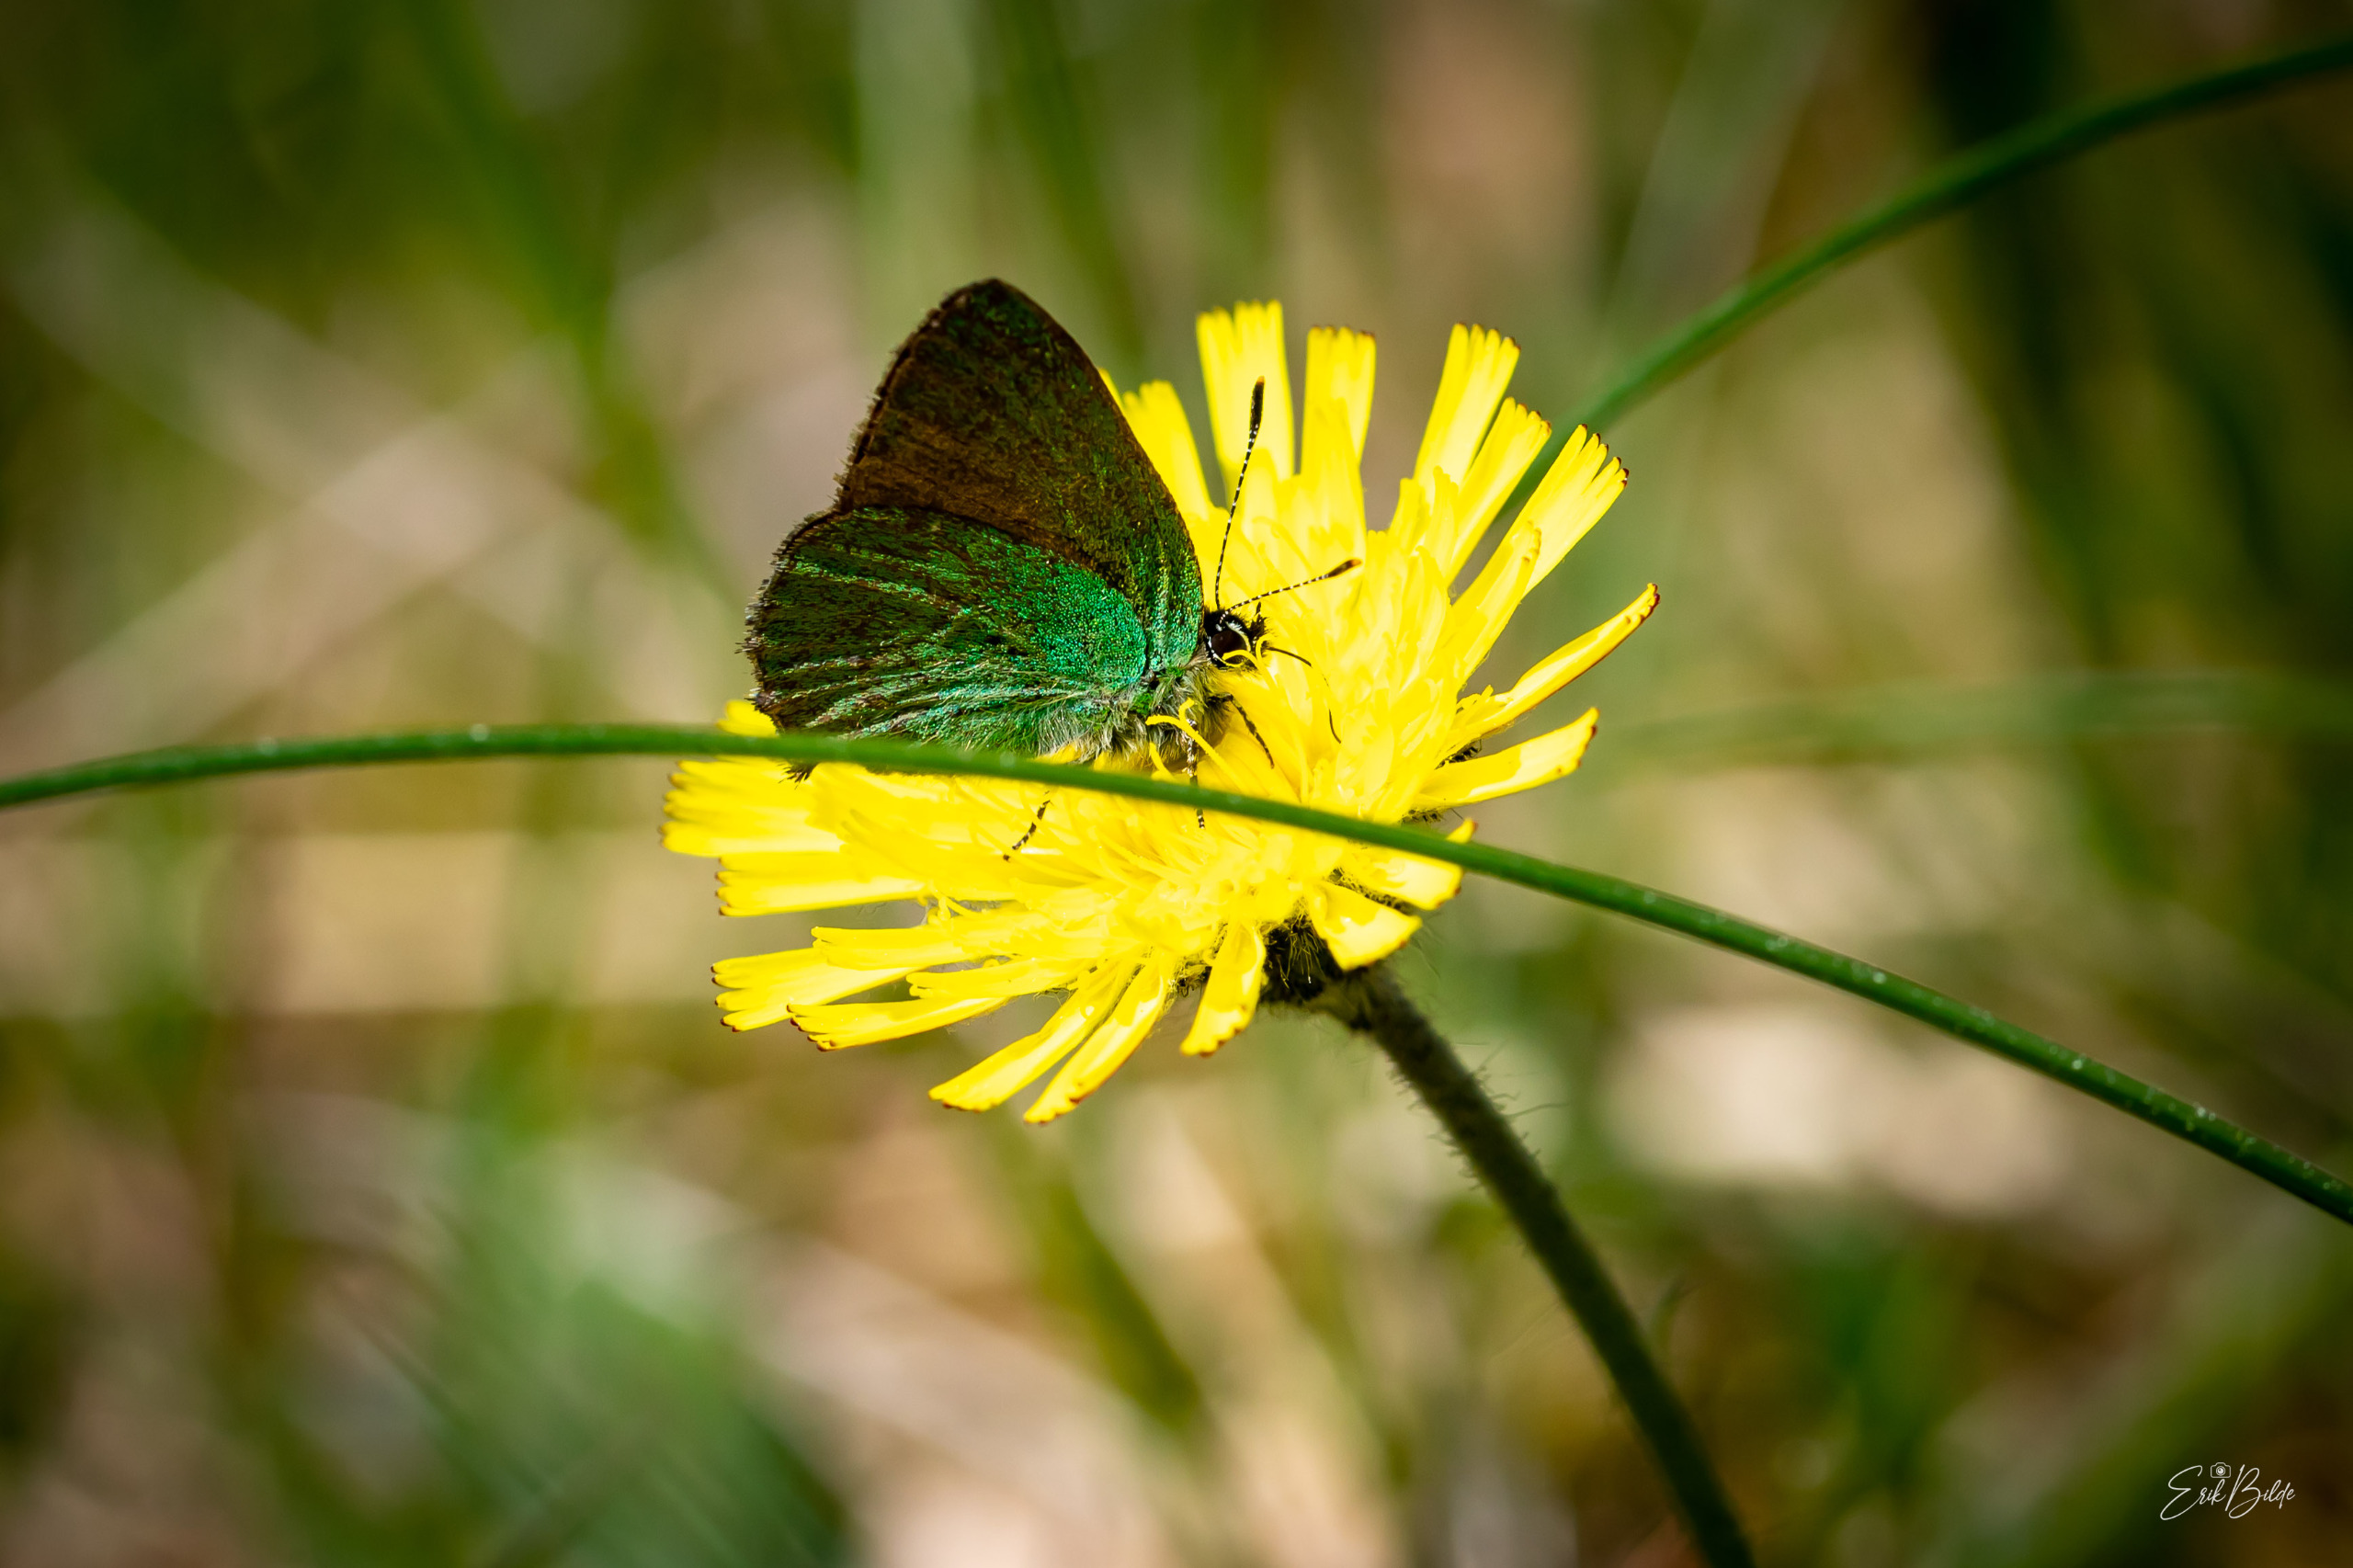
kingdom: Animalia
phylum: Arthropoda
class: Insecta
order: Lepidoptera
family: Lycaenidae
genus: Callophrys
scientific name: Callophrys rubi
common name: Grøn busksommerfugl
